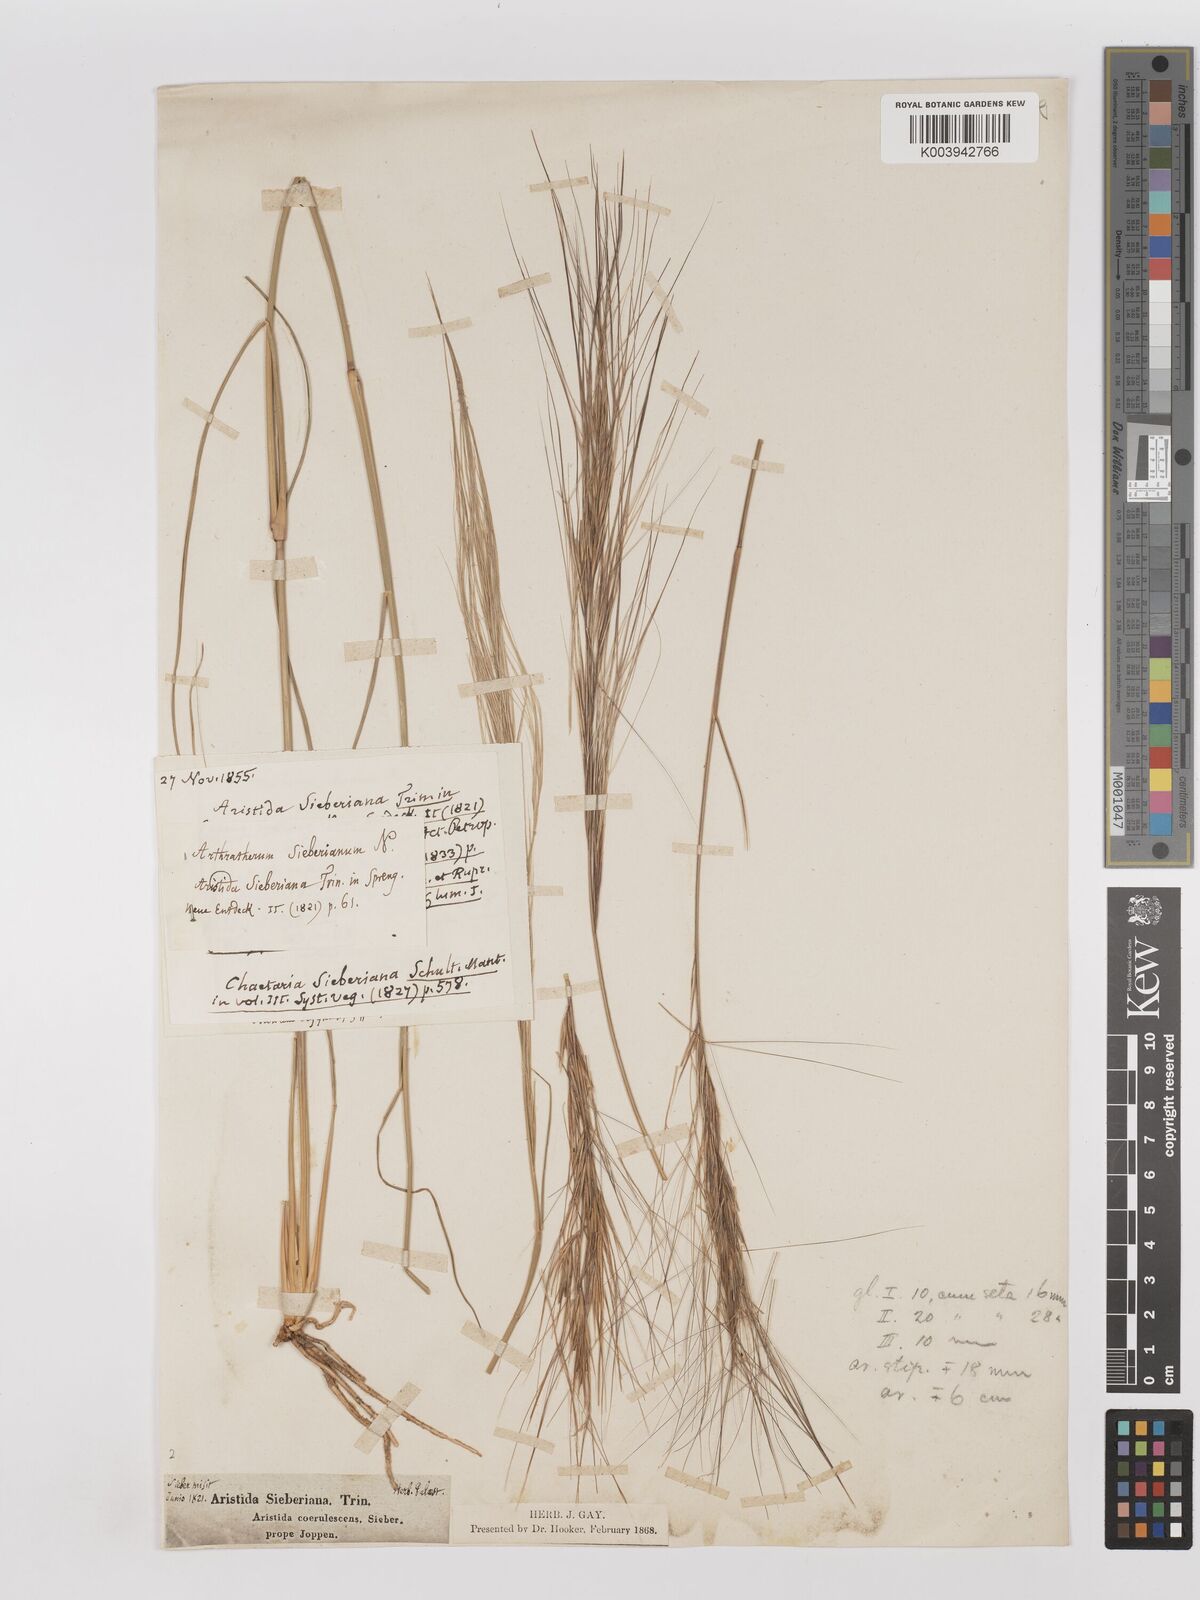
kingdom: Plantae
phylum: Tracheophyta
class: Liliopsida
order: Poales
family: Poaceae
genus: Aristida
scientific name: Aristida sieberiana
